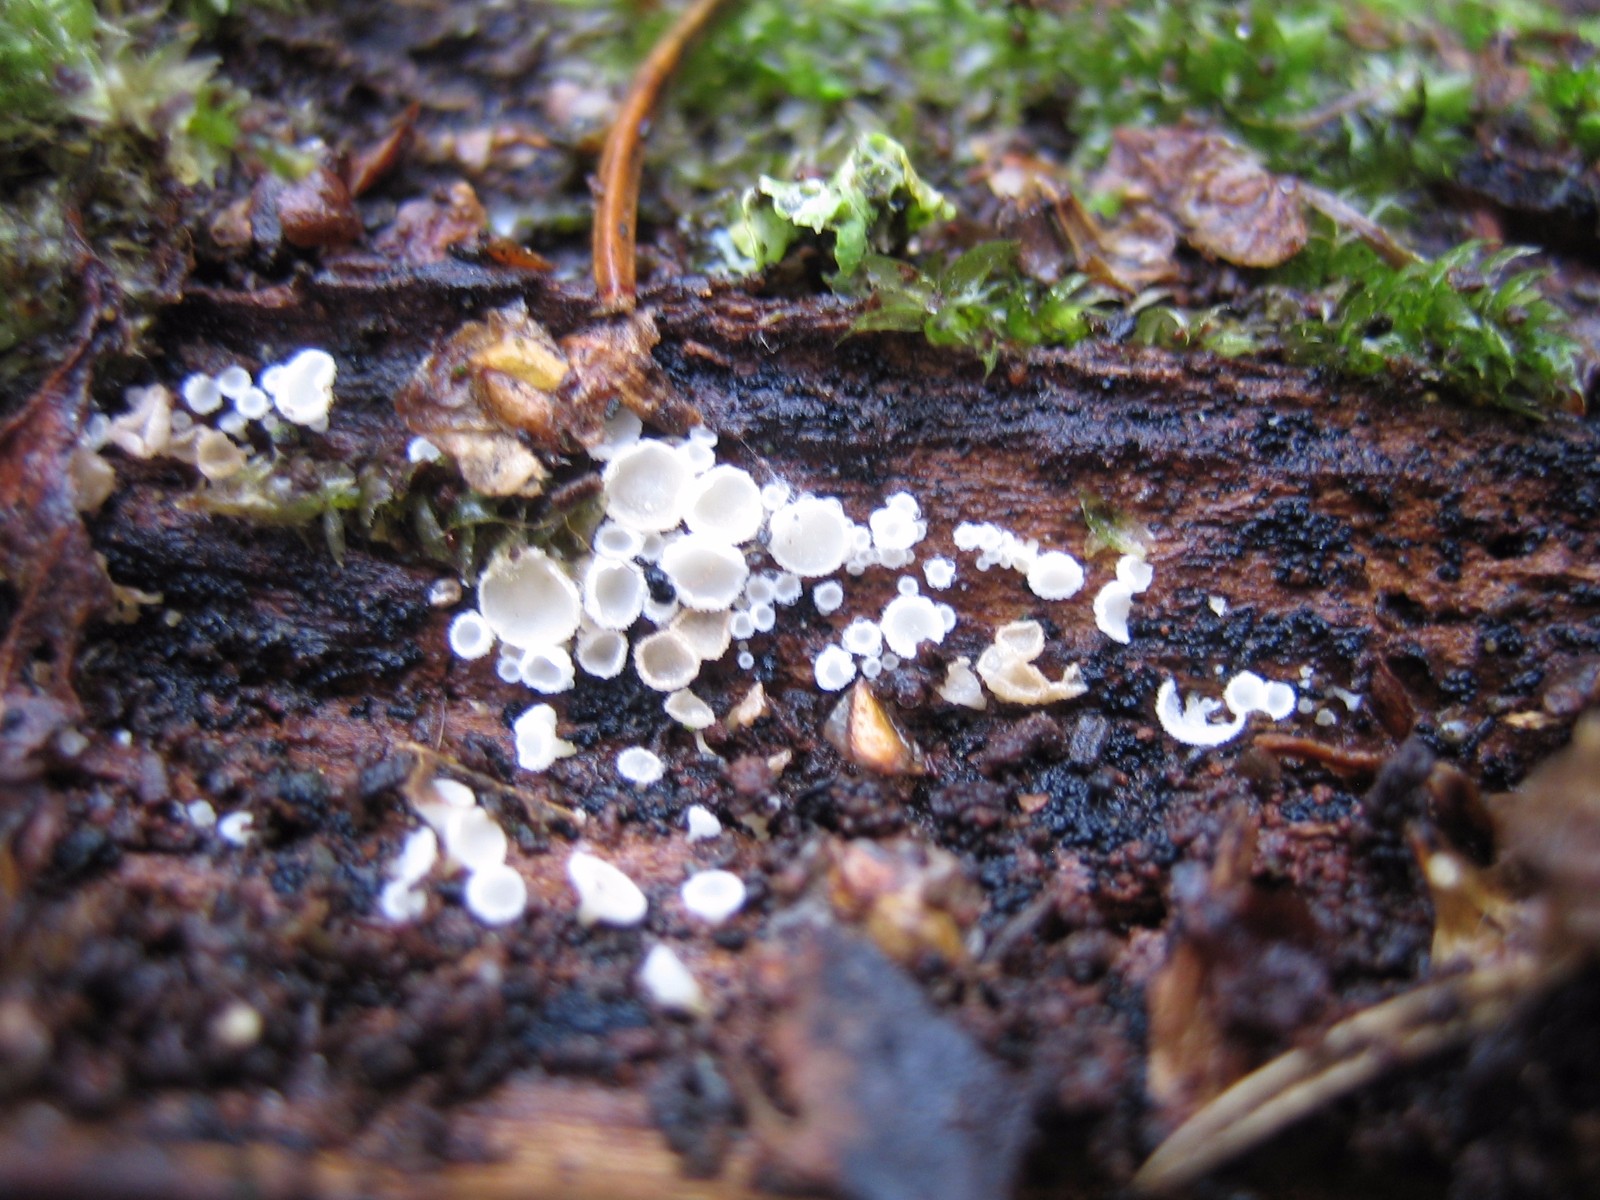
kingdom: Fungi
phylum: Ascomycota
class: Leotiomycetes
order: Helotiales
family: Lachnaceae
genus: Lachnum
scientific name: Lachnum
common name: frynseskive
